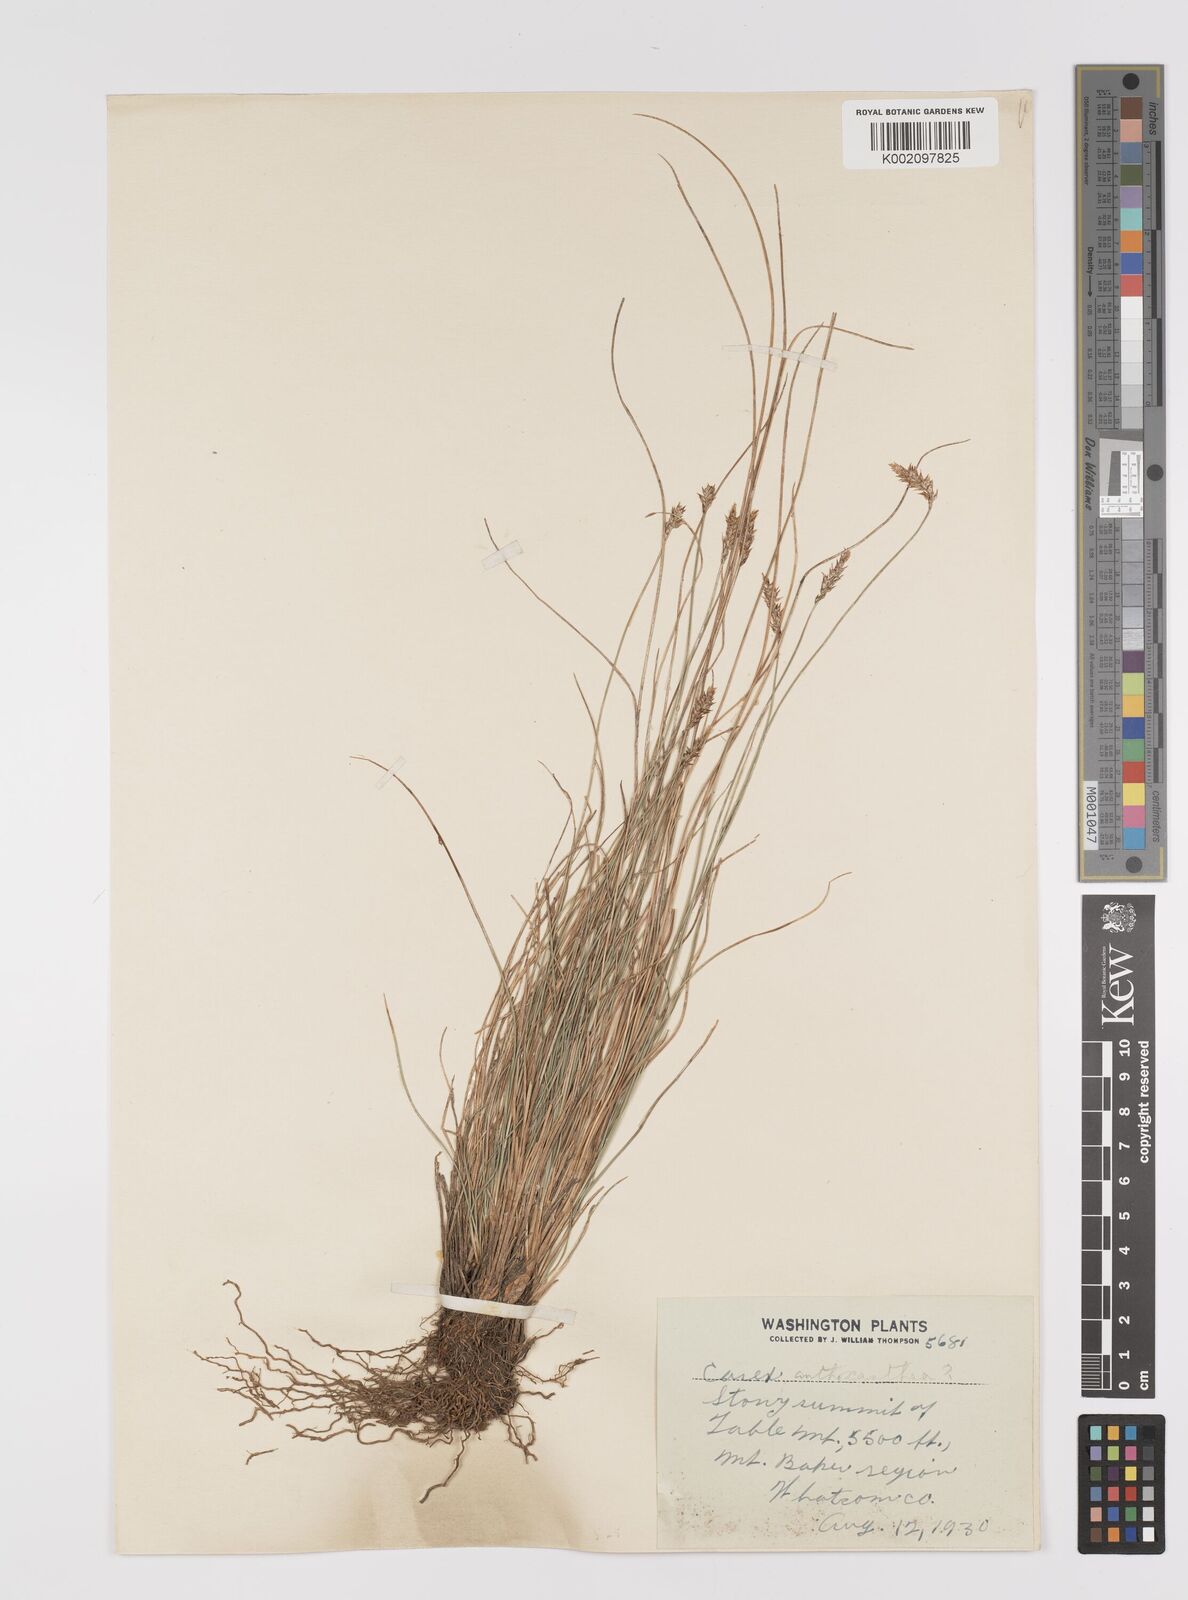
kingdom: Plantae
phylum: Tracheophyta
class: Liliopsida
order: Poales
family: Cyperaceae
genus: Carex
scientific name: Carex anthoxanthea
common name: Grassy-slope arctic sedge
